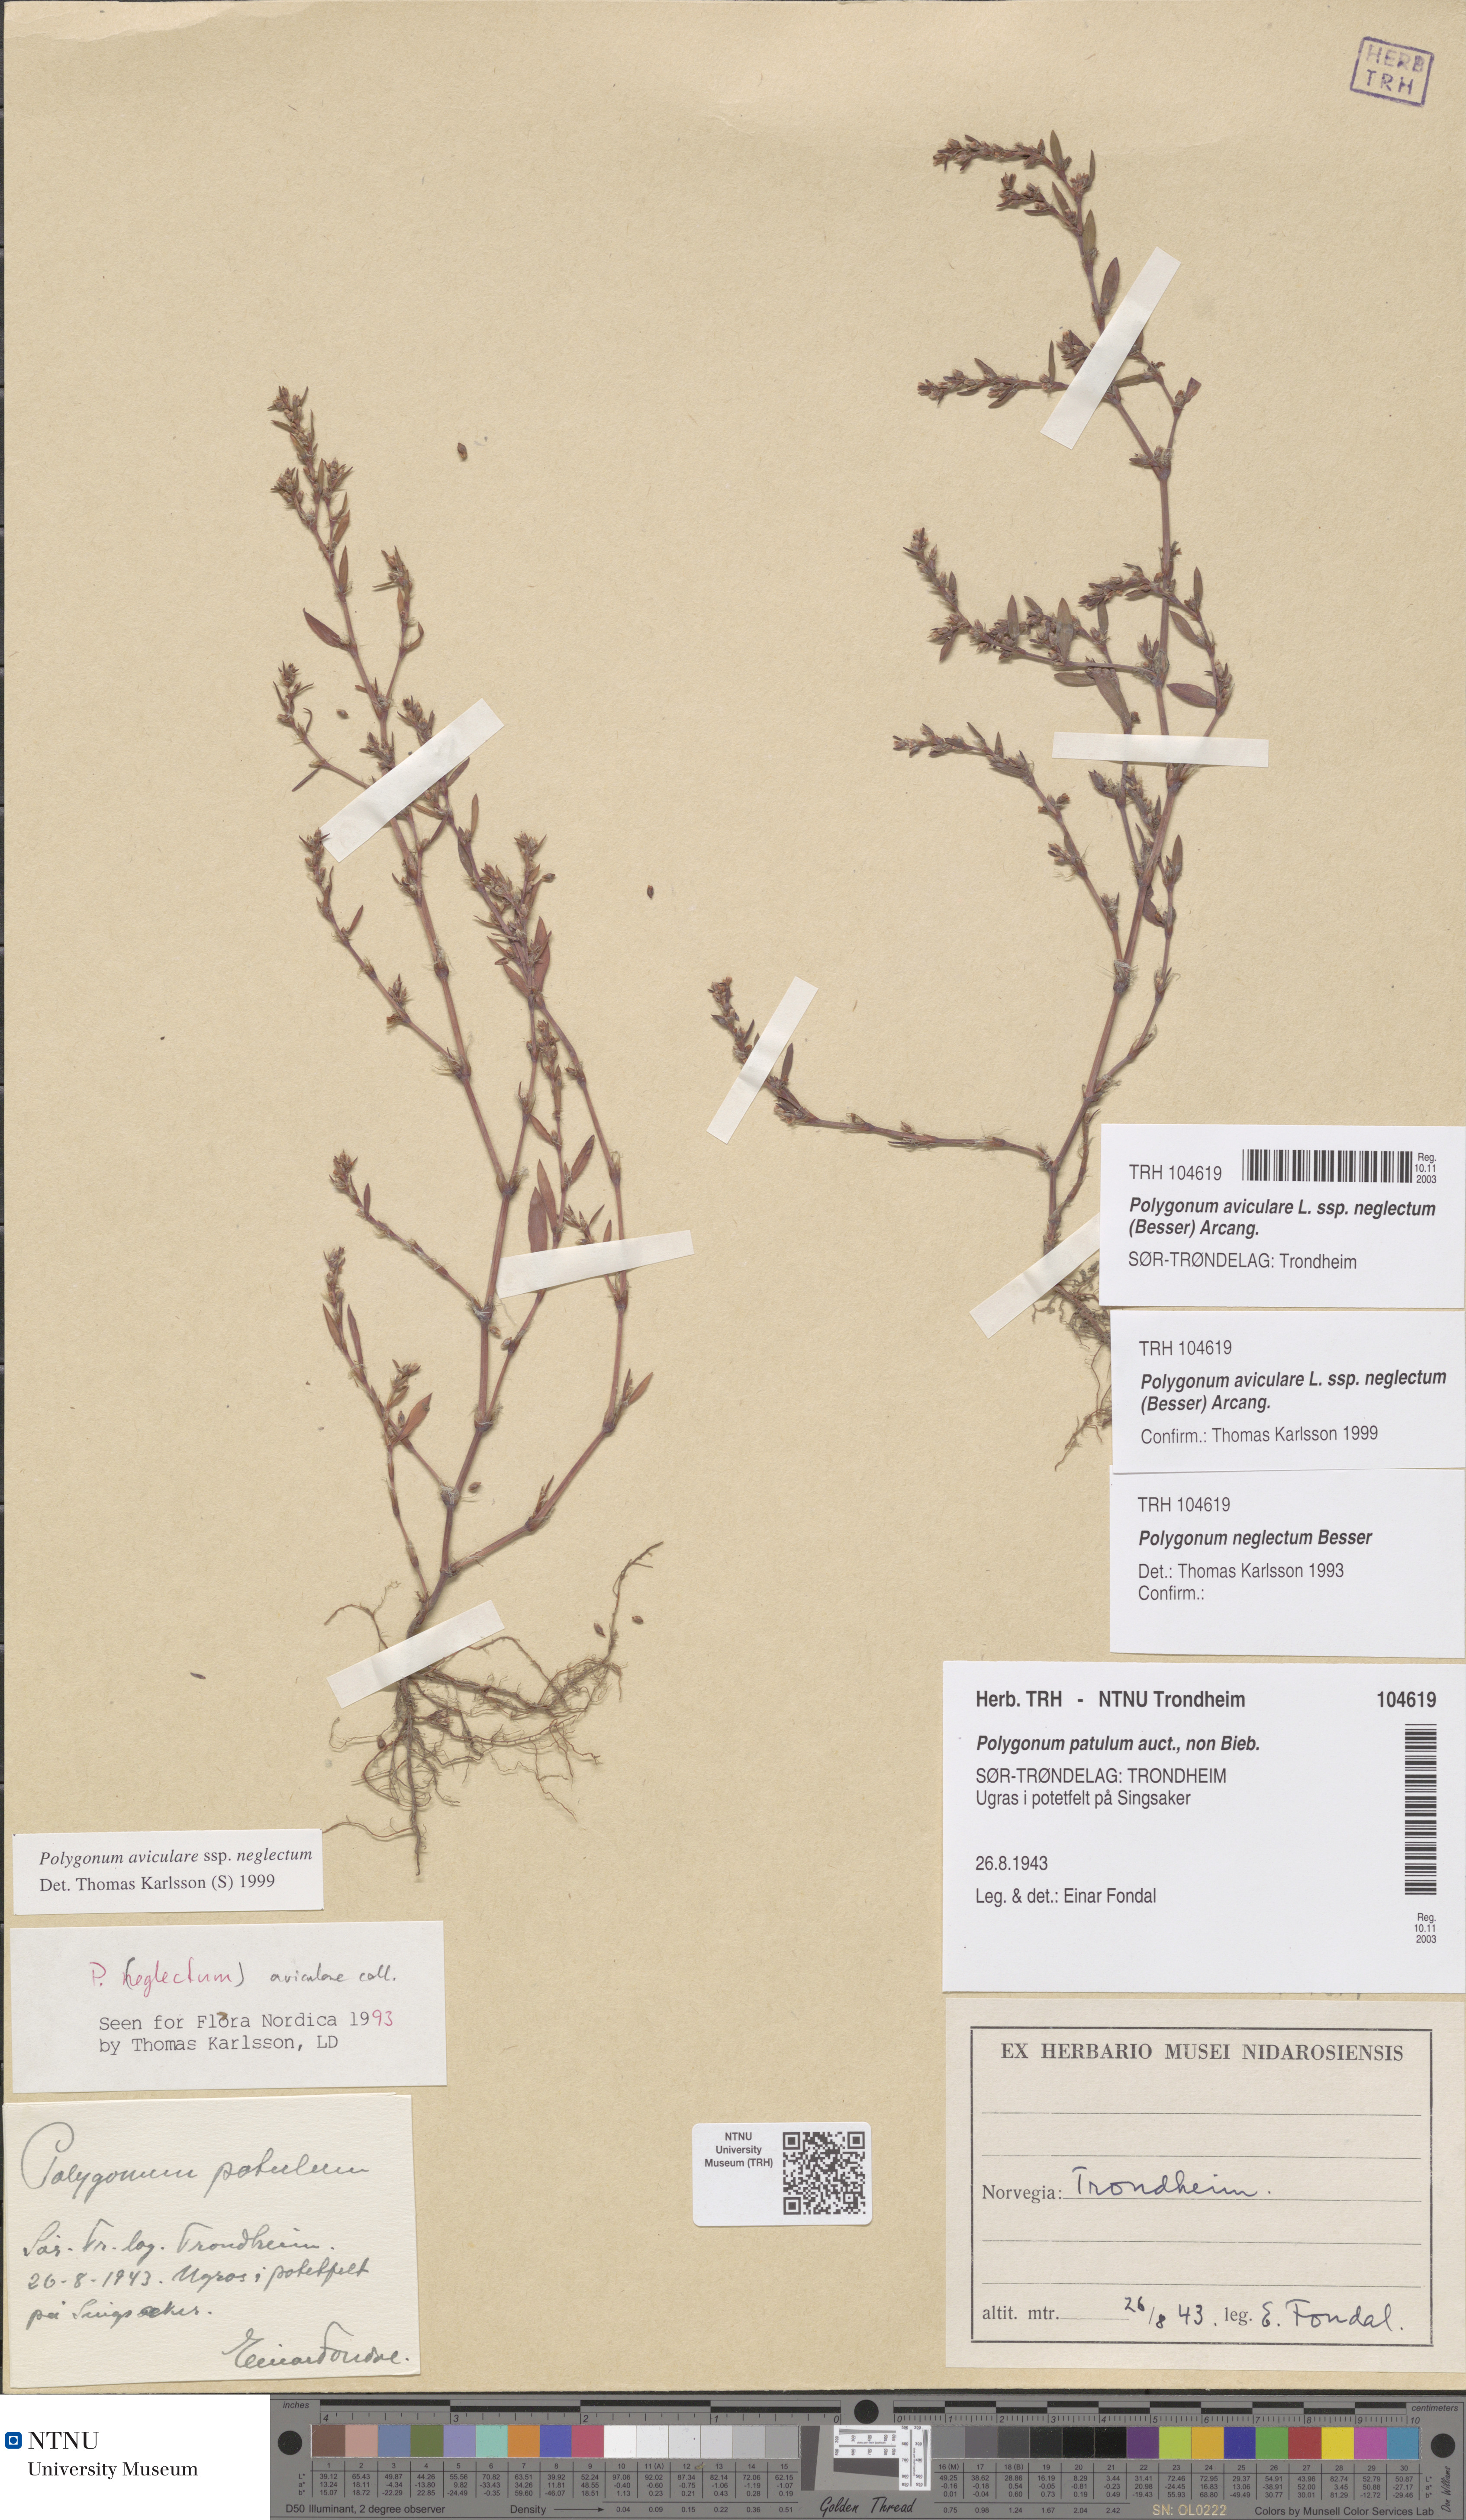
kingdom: Plantae
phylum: Tracheophyta
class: Magnoliopsida
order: Caryophyllales
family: Polygonaceae
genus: Polygonum
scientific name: Polygonum aviculare
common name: Prostrate knotweed
